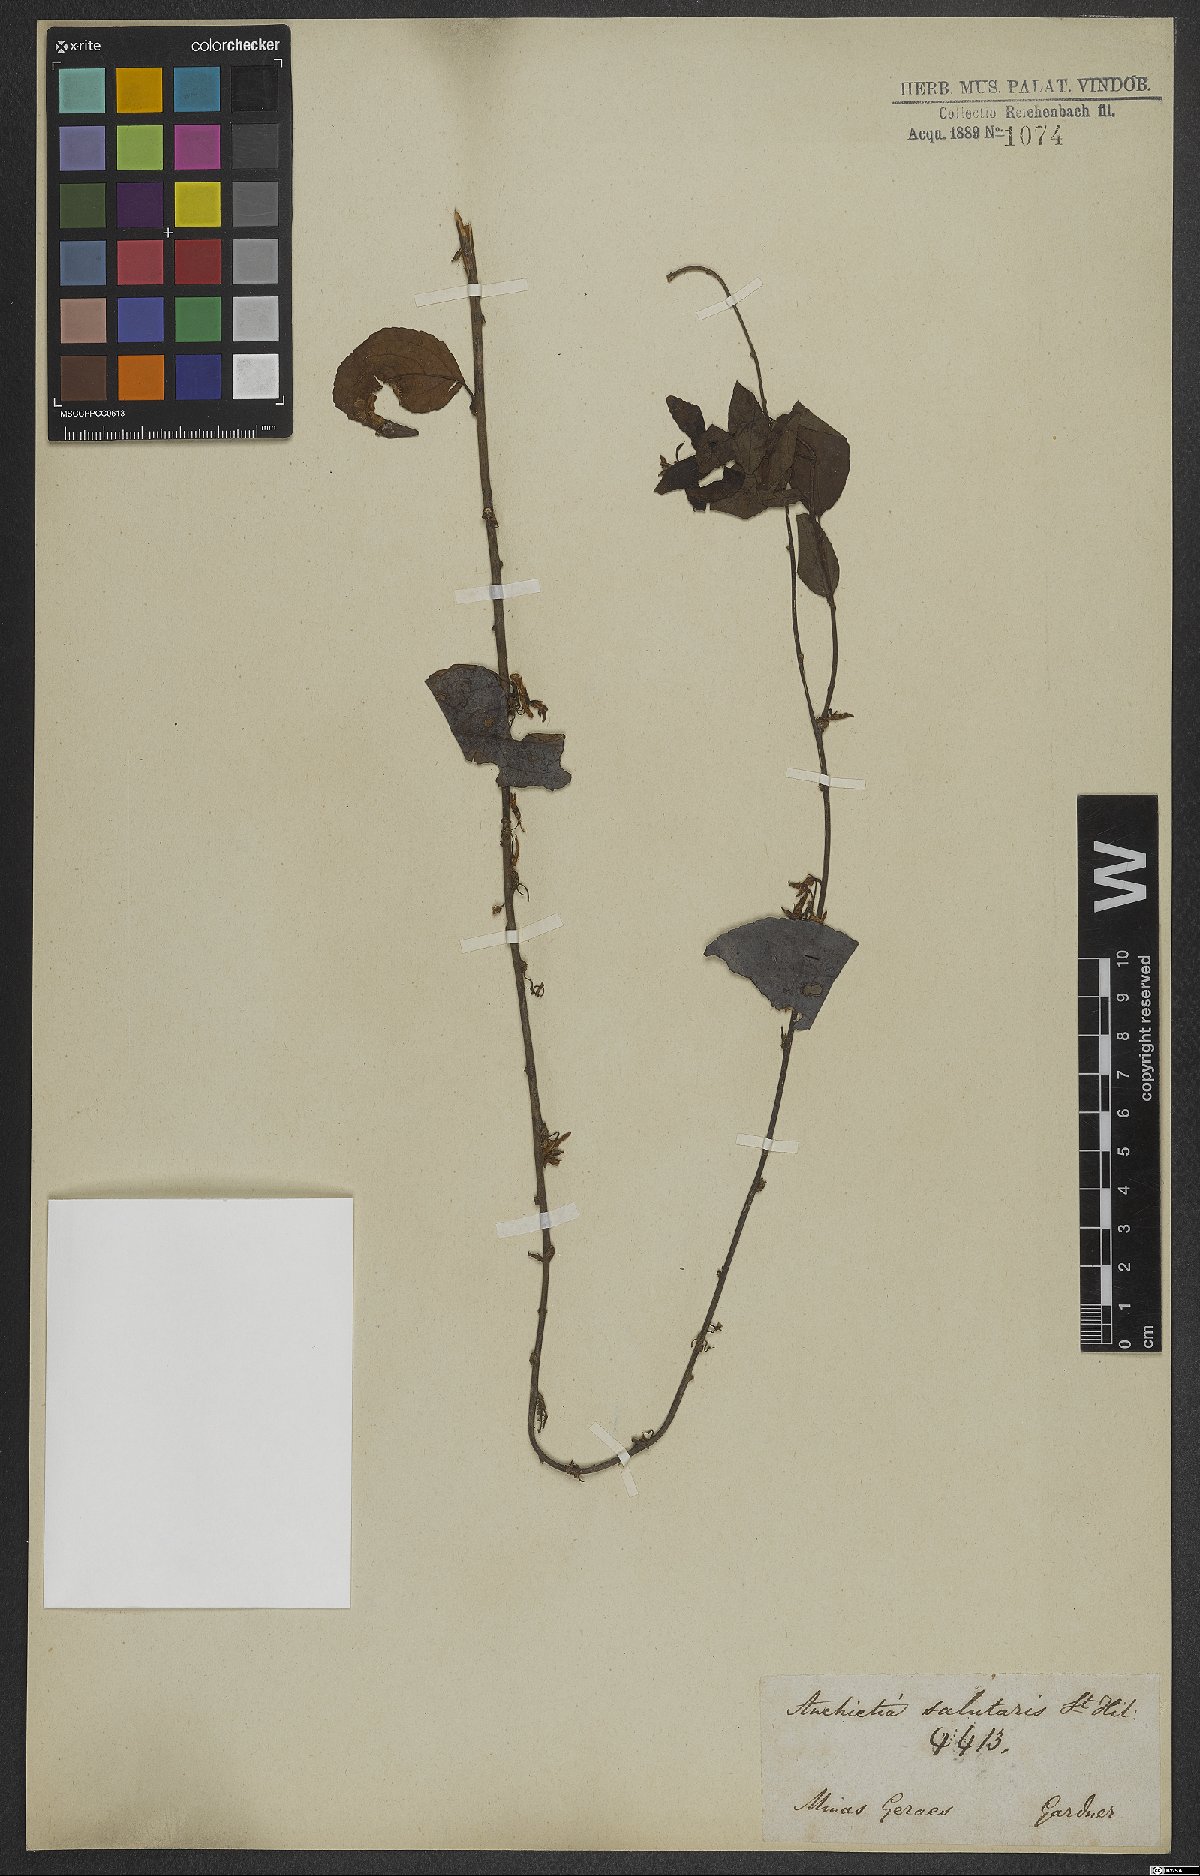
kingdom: Plantae
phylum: Tracheophyta
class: Magnoliopsida
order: Malpighiales
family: Violaceae
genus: Anchietea
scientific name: Anchietea pyrifolia
